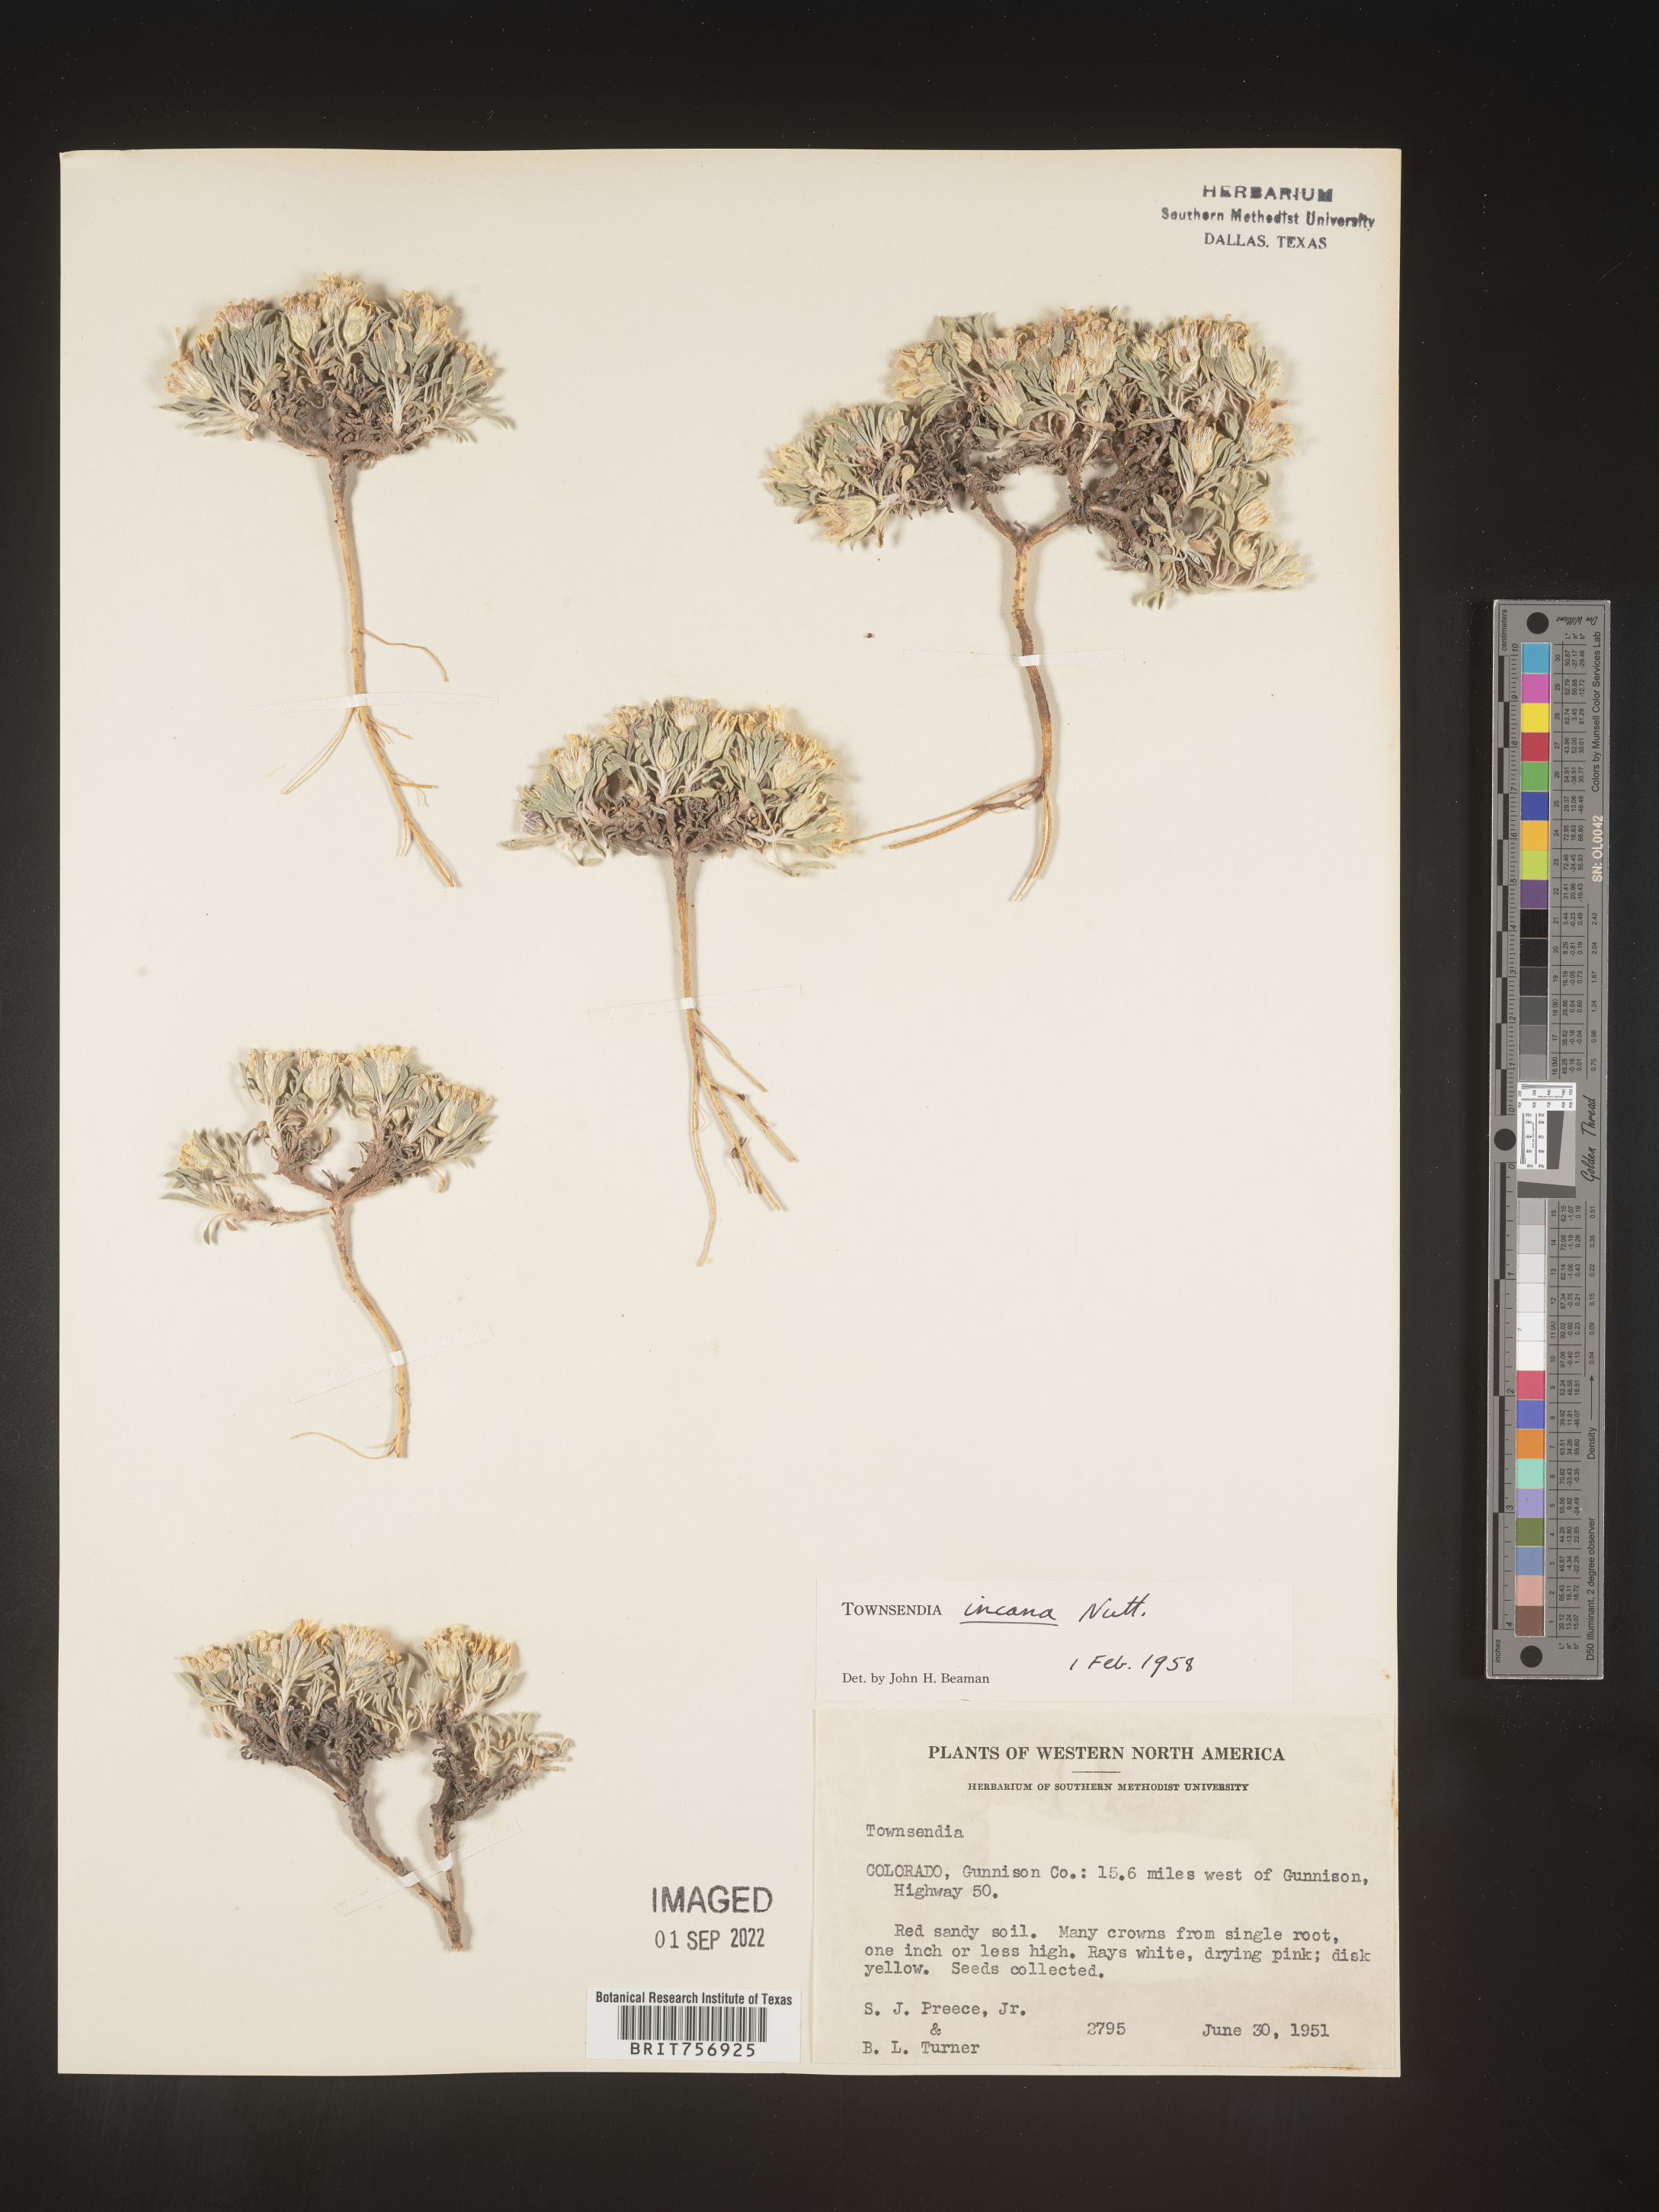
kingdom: Plantae
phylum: Tracheophyta
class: Magnoliopsida
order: Asterales
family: Asteraceae
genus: Townsendia
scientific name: Townsendia incana
